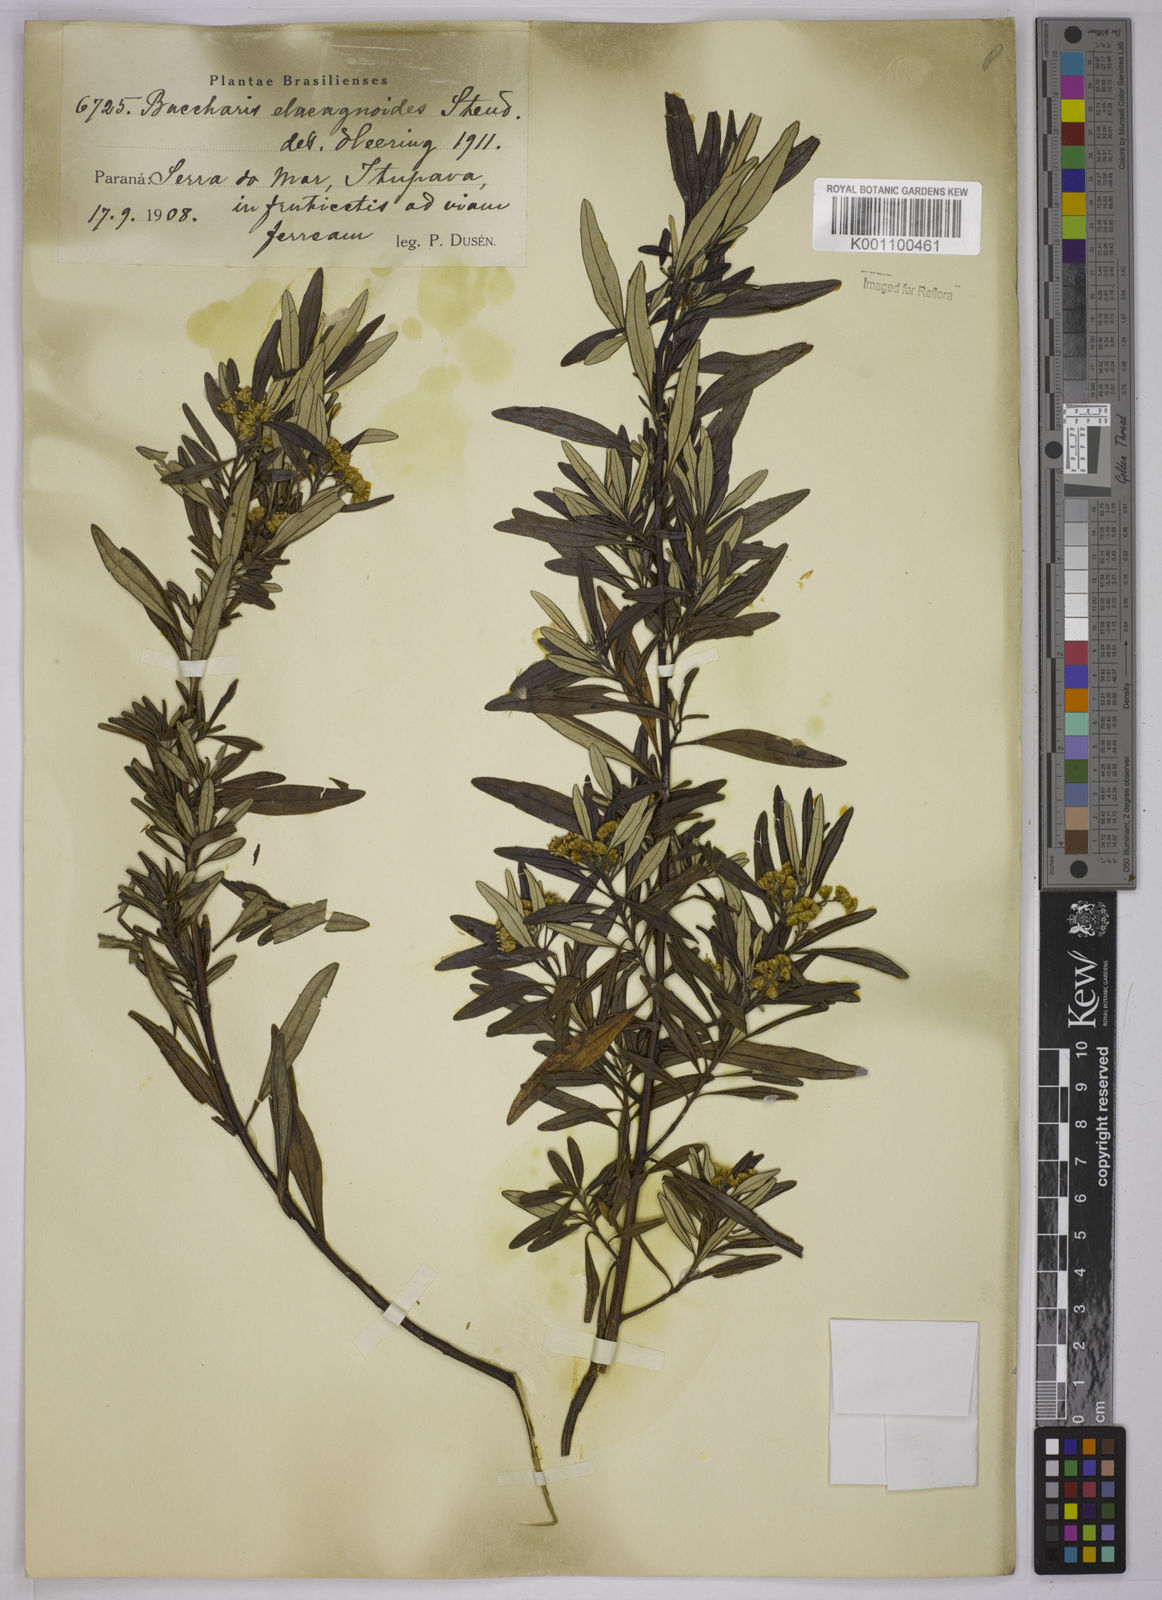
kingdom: Plantae
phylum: Tracheophyta
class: Magnoliopsida
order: Asterales
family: Asteraceae
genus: Baccharis
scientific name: Baccharis
